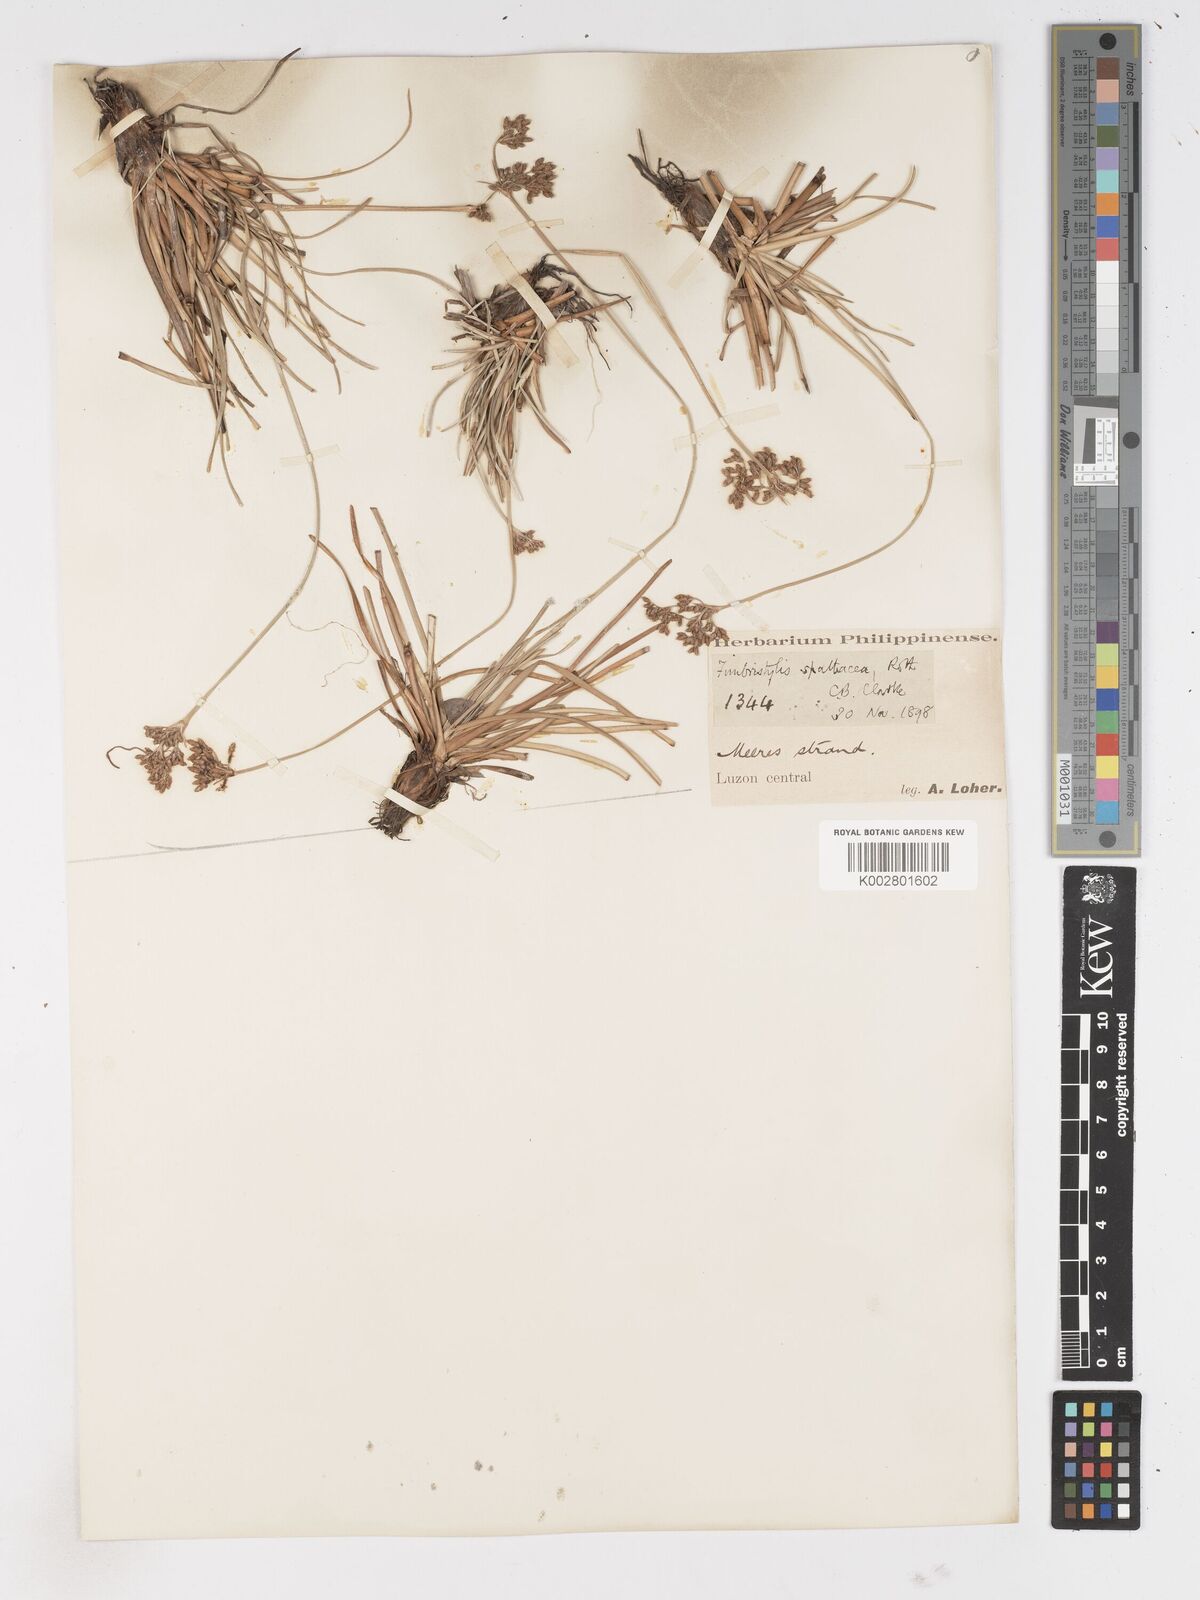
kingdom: Plantae
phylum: Tracheophyta
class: Liliopsida
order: Poales
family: Cyperaceae
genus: Fimbristylis
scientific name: Fimbristylis cymosa
